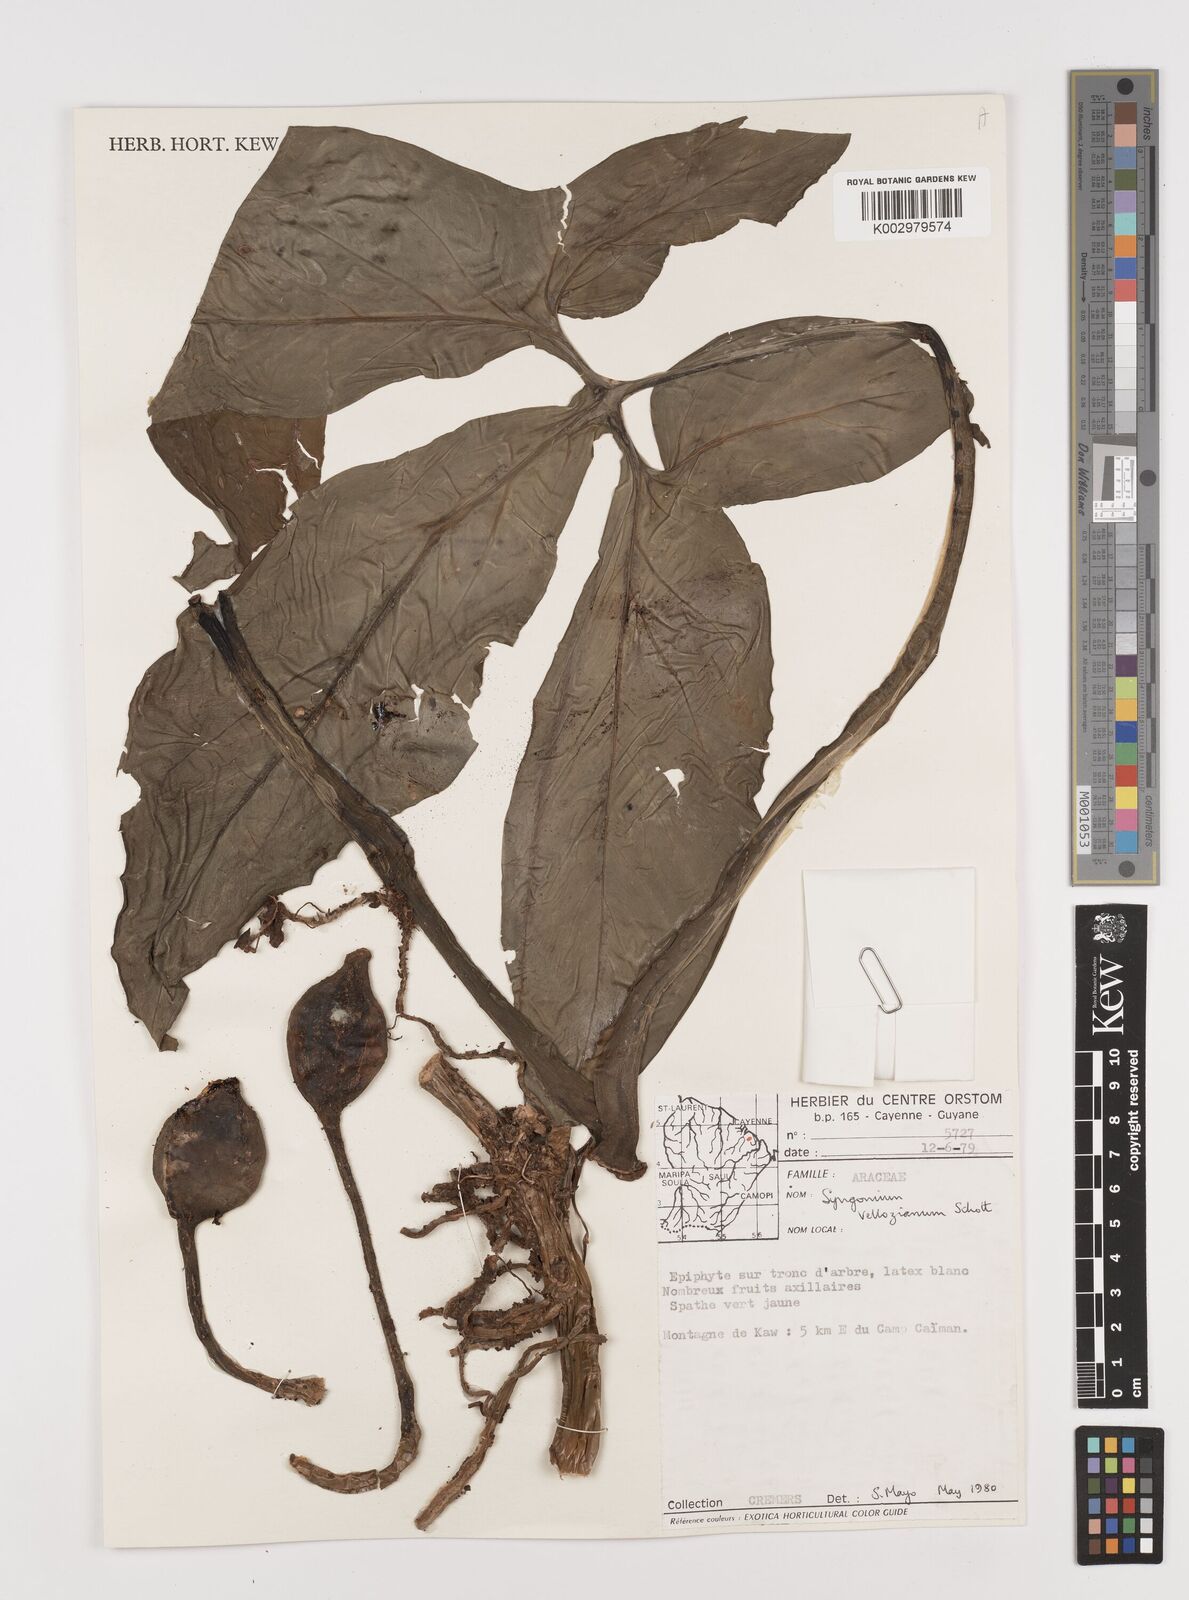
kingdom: Plantae
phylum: Tracheophyta
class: Liliopsida
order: Alismatales
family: Araceae
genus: Syngonium
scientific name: Syngonium podophyllum
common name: American evergreen
